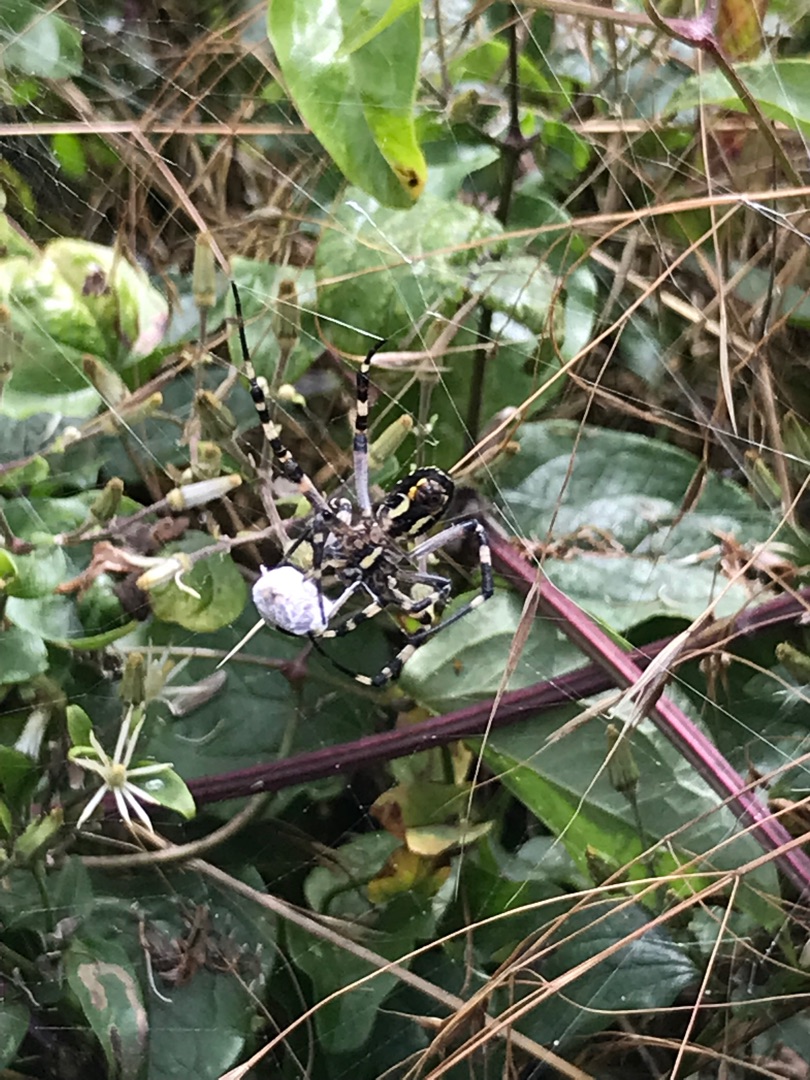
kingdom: Animalia
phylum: Arthropoda
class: Arachnida
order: Araneae
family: Araneidae
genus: Argiope
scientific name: Argiope bruennichi
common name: Hvepseedderkop
